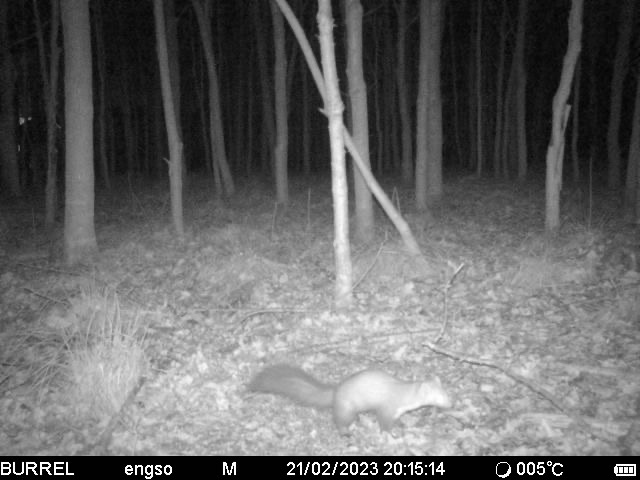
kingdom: Animalia
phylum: Chordata
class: Mammalia
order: Carnivora
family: Mustelidae
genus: Martes
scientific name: Martes foina
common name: Husmår
